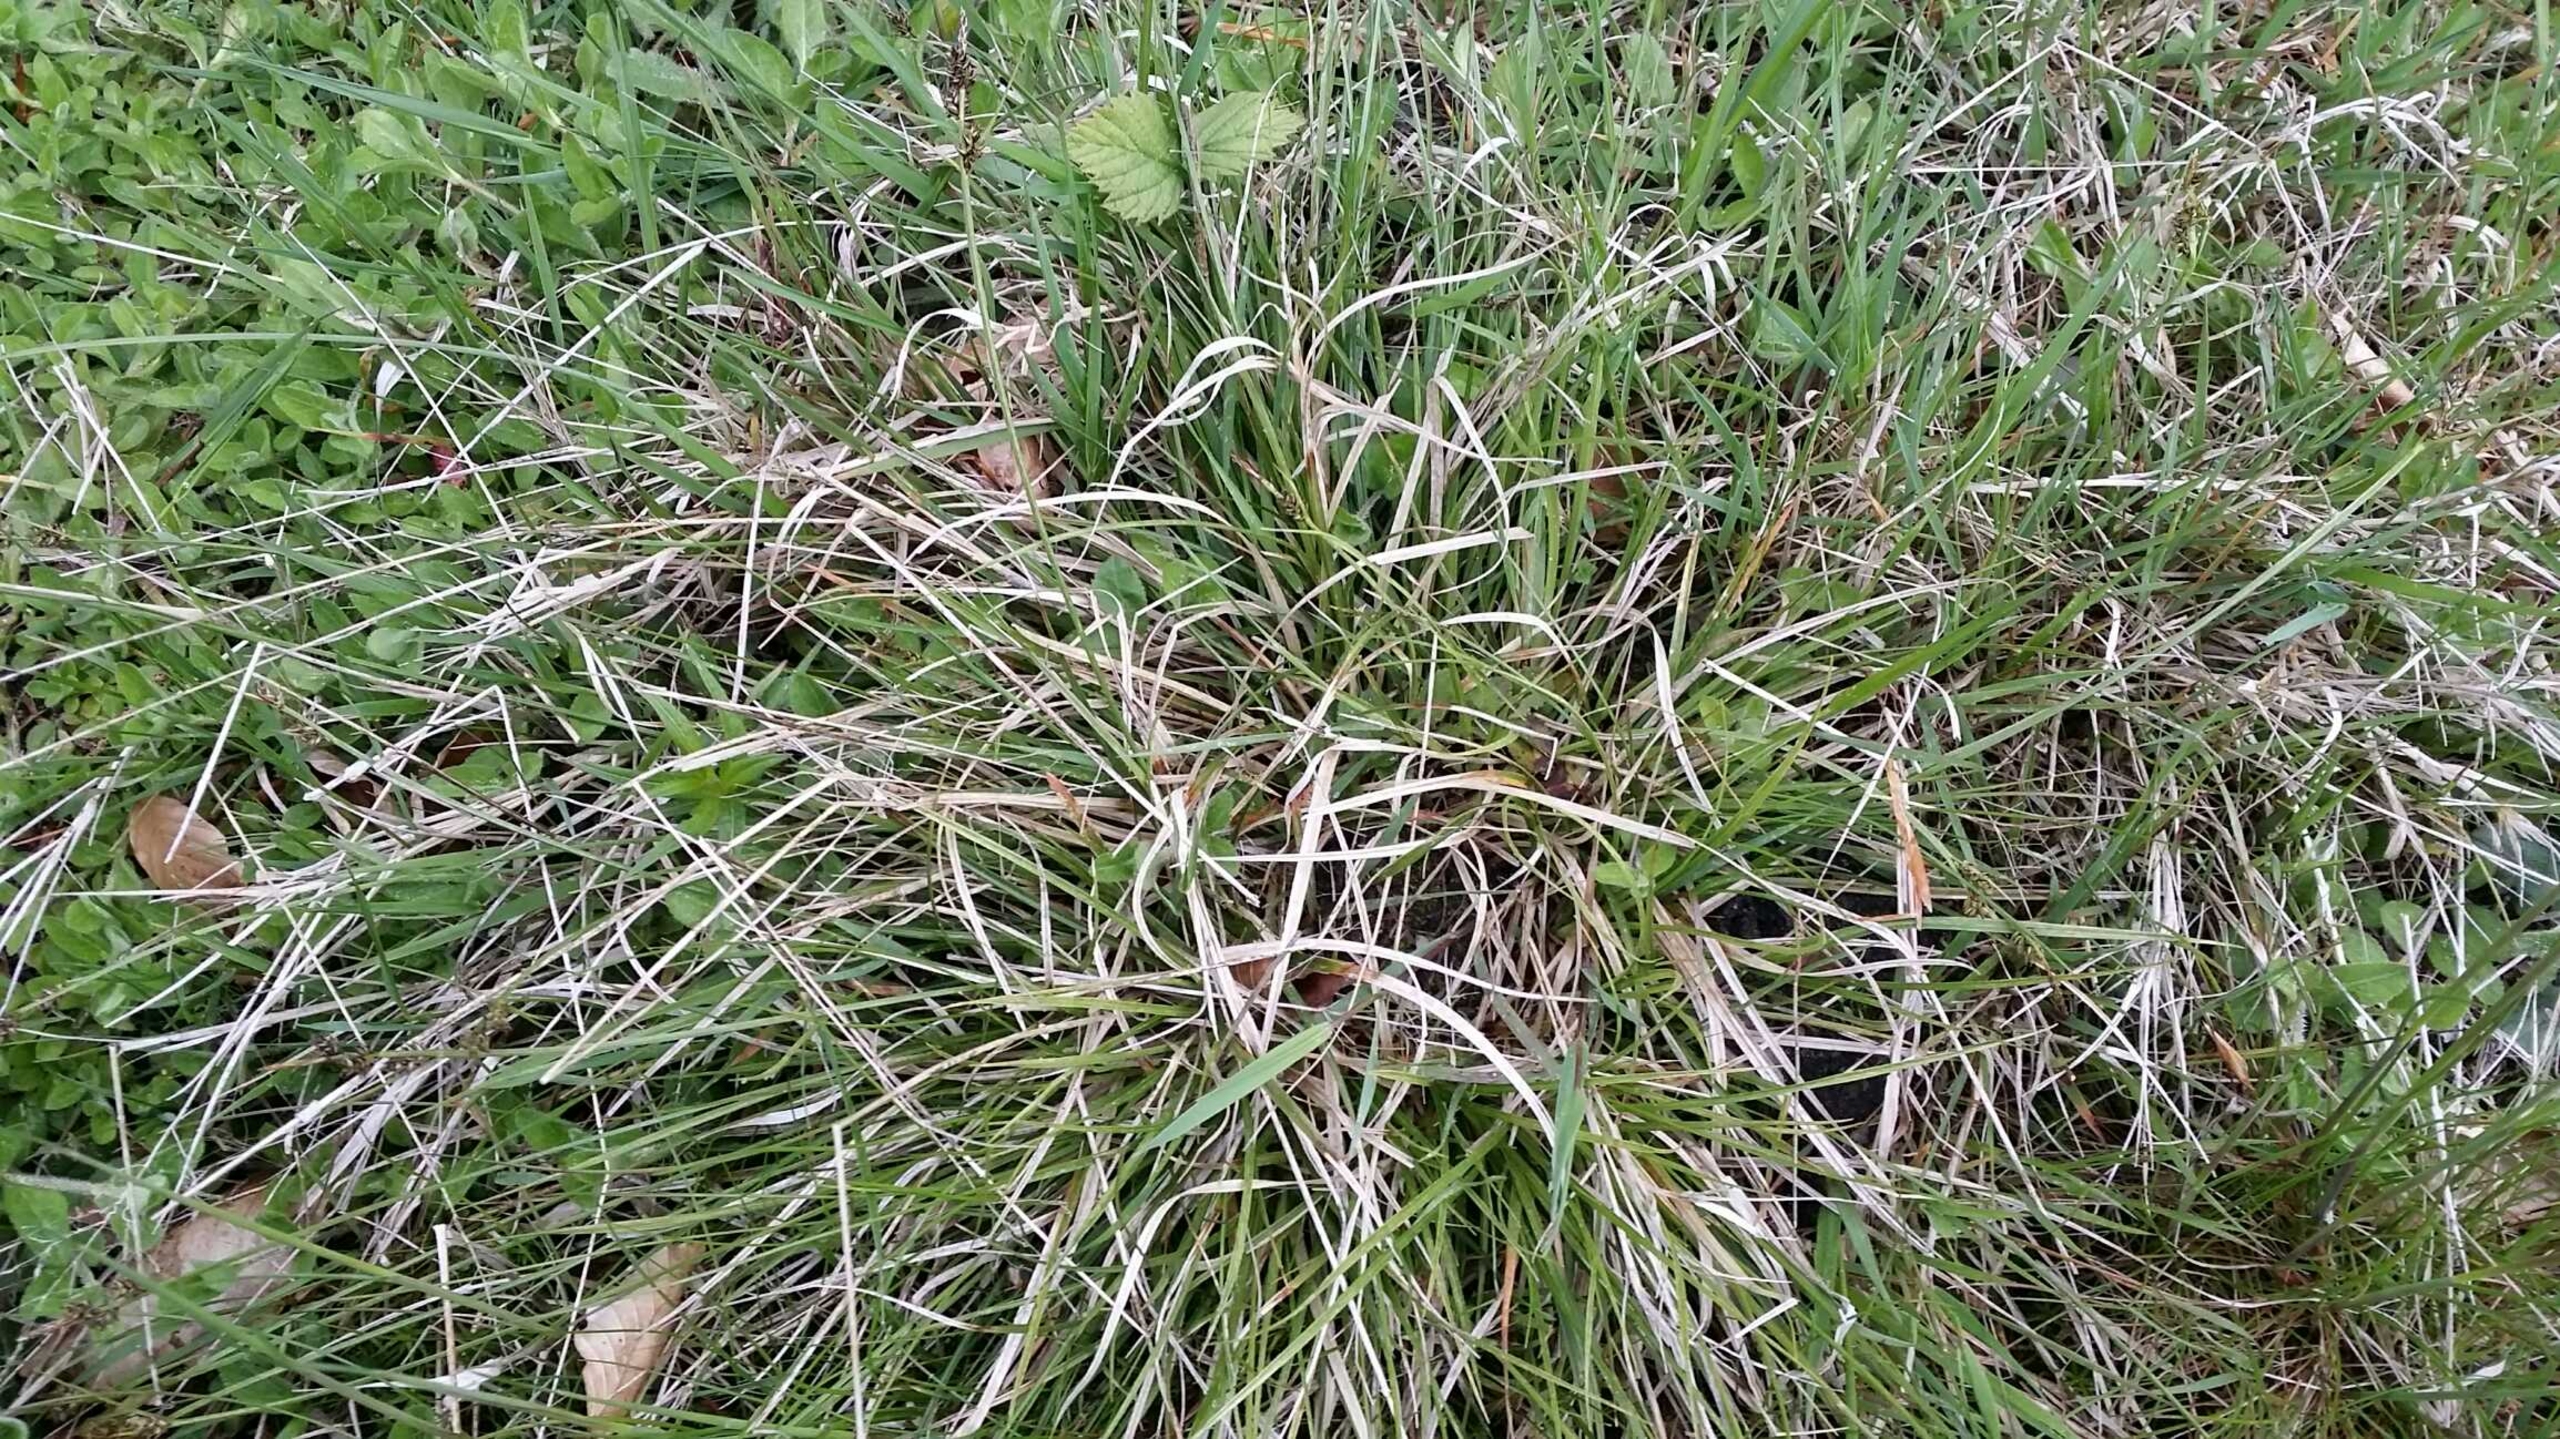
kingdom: Plantae
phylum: Tracheophyta
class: Liliopsida
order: Poales
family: Cyperaceae
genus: Carex
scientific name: Carex pilulifera
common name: Pille-star
